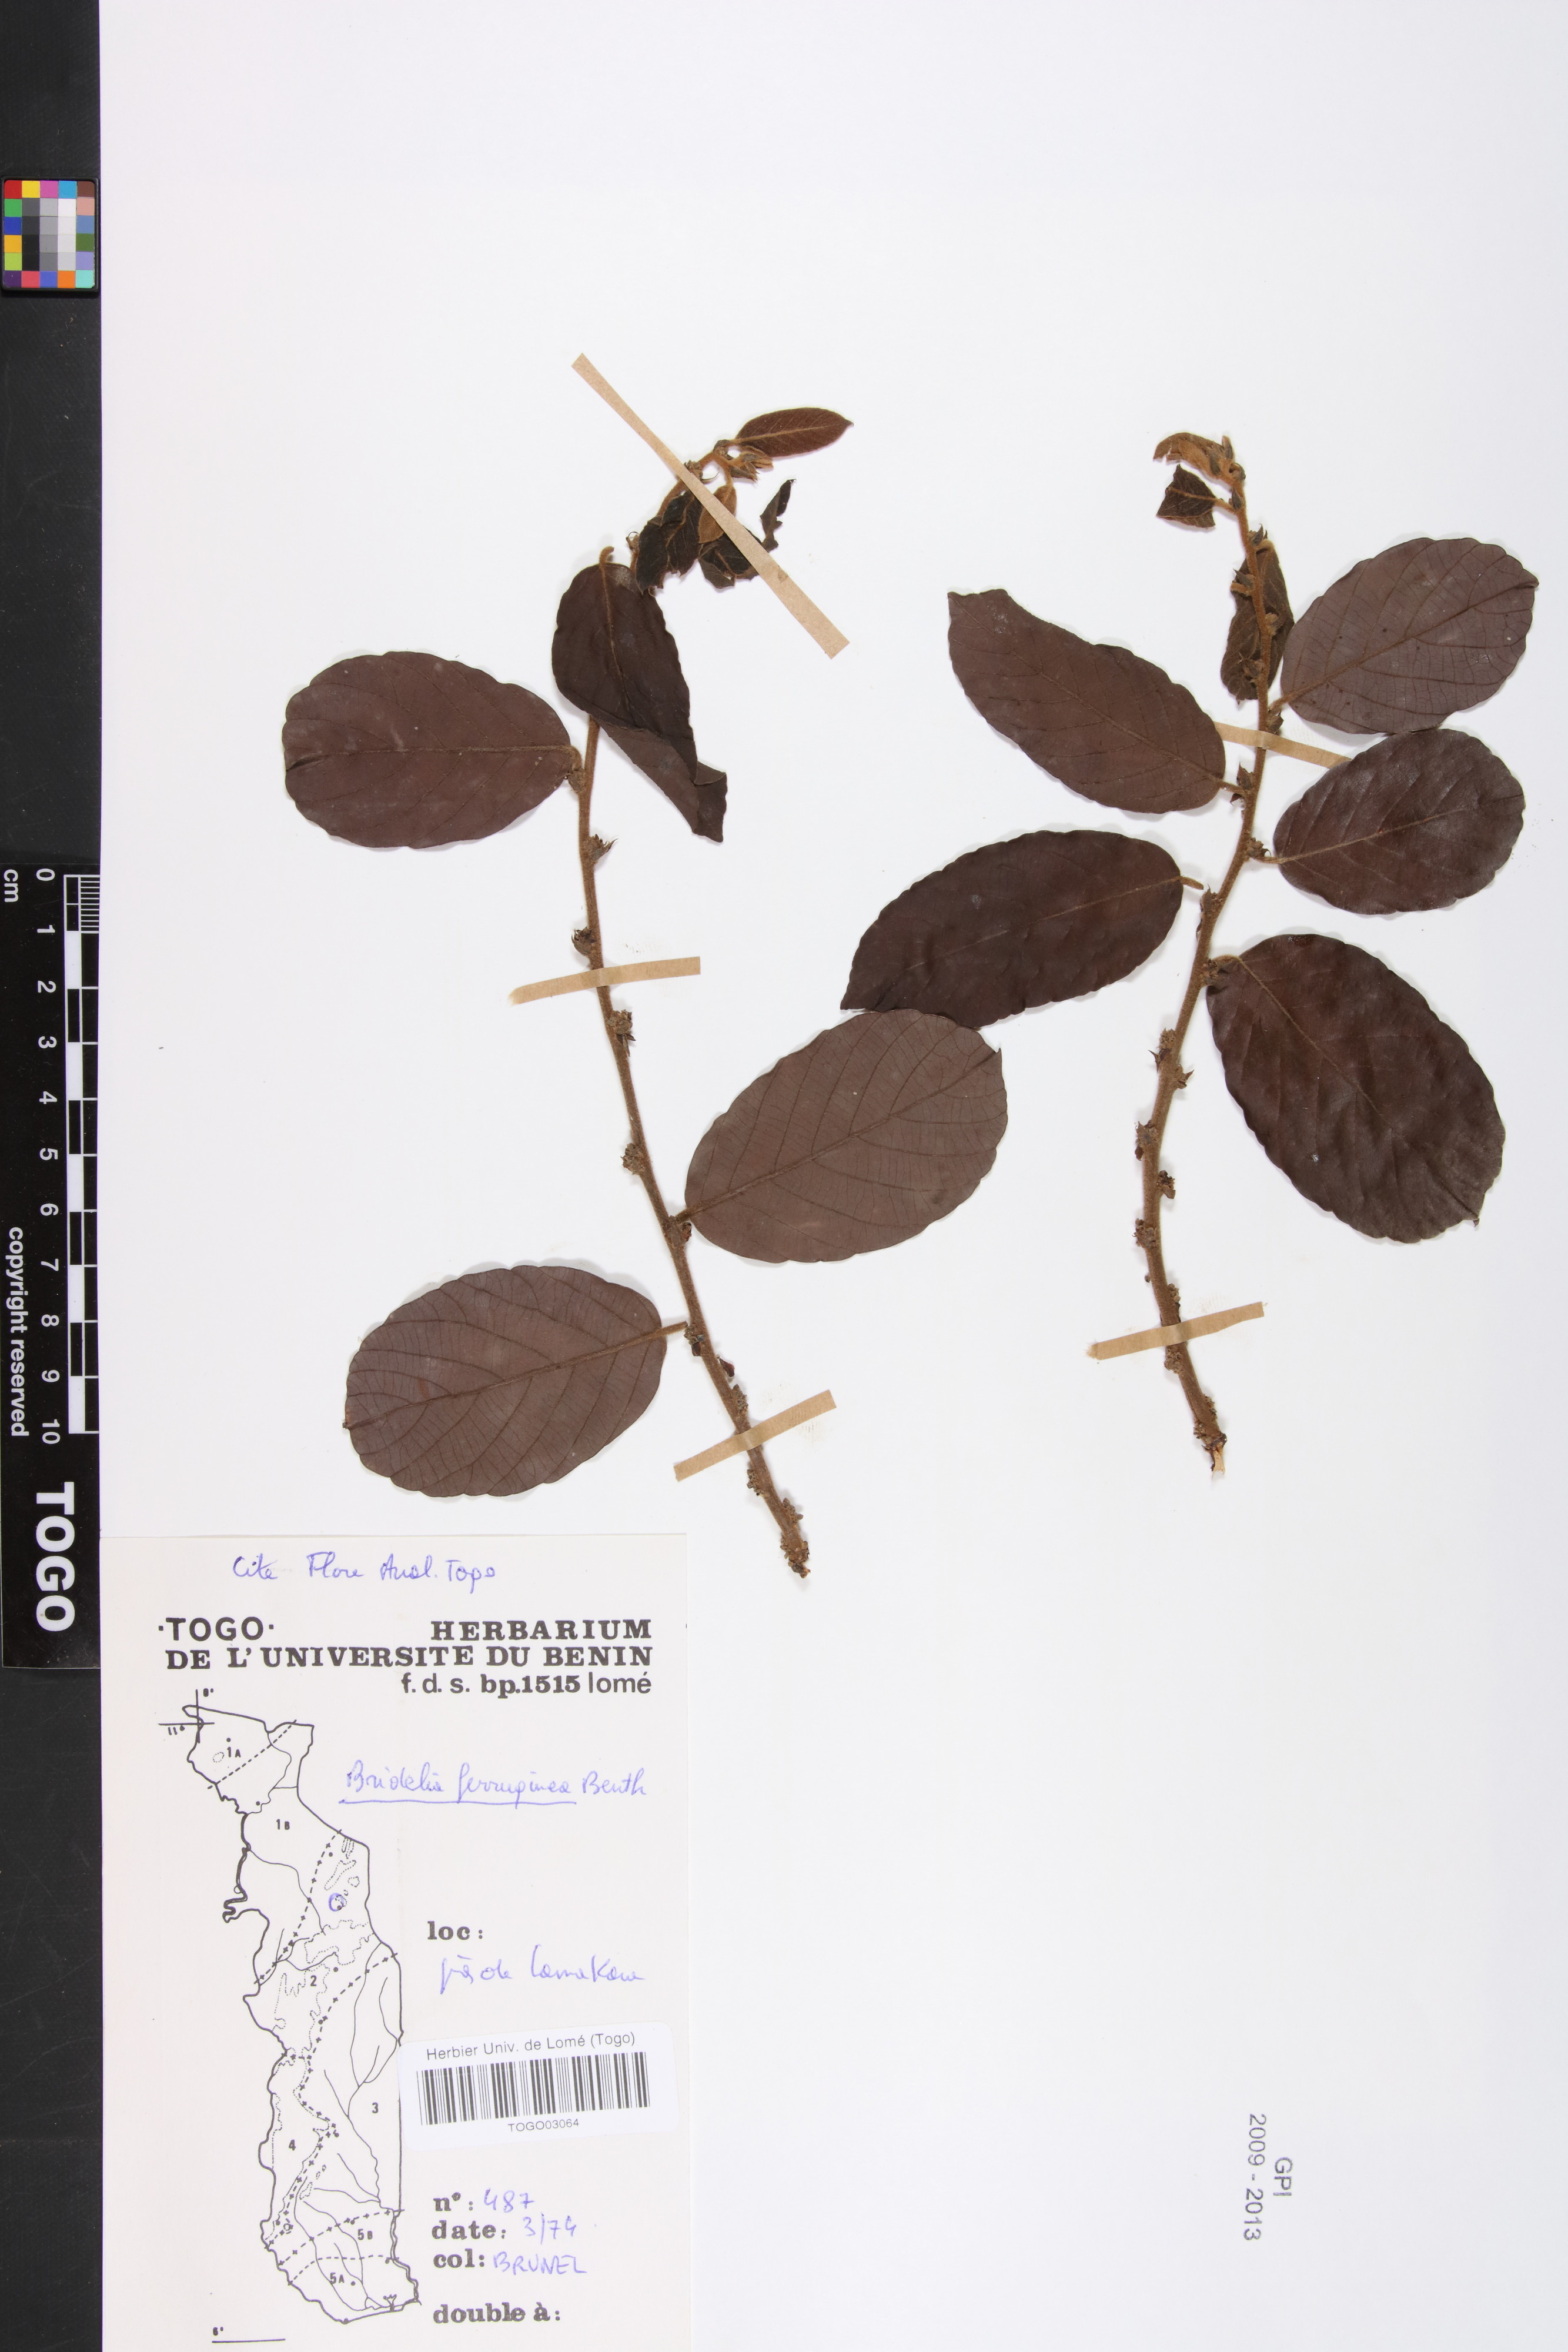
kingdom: Plantae
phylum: Tracheophyta
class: Magnoliopsida
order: Malpighiales
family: Phyllanthaceae
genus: Bridelia
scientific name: Bridelia ferruginea
